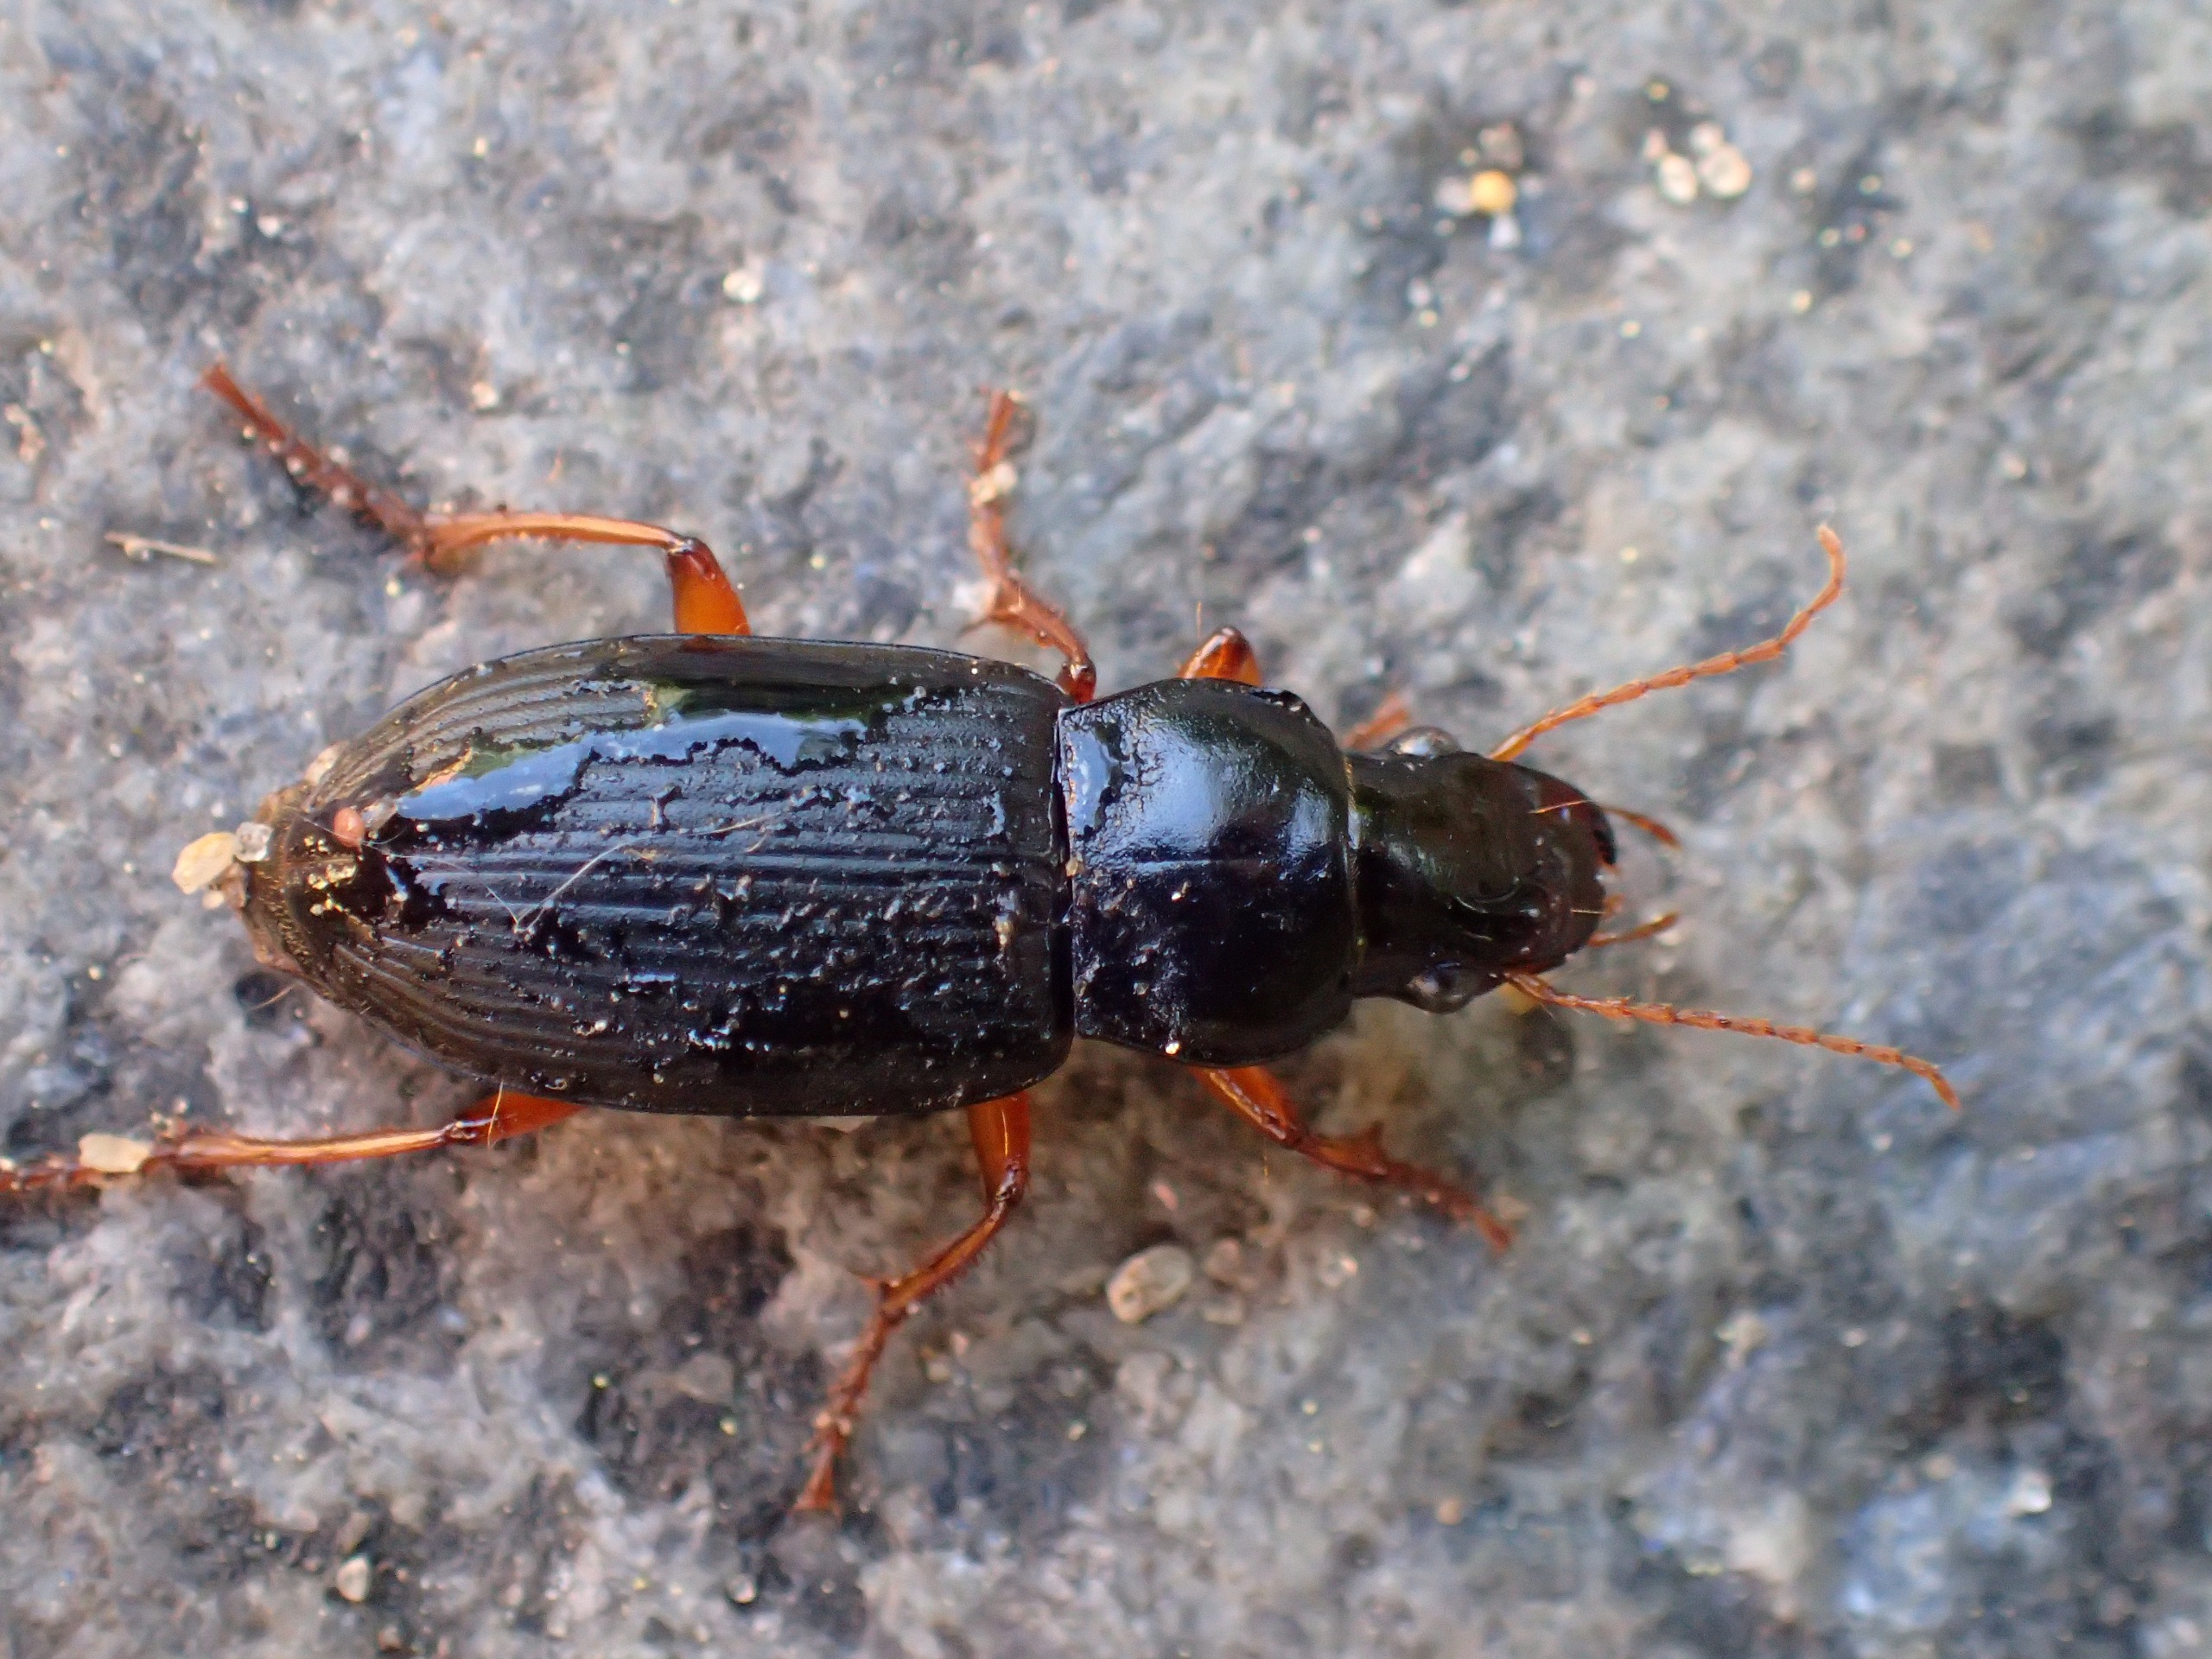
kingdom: Animalia
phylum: Arthropoda
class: Insecta
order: Coleoptera
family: Carabidae
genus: Harpalus
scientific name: Harpalus rufipes
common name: Håret markløber
